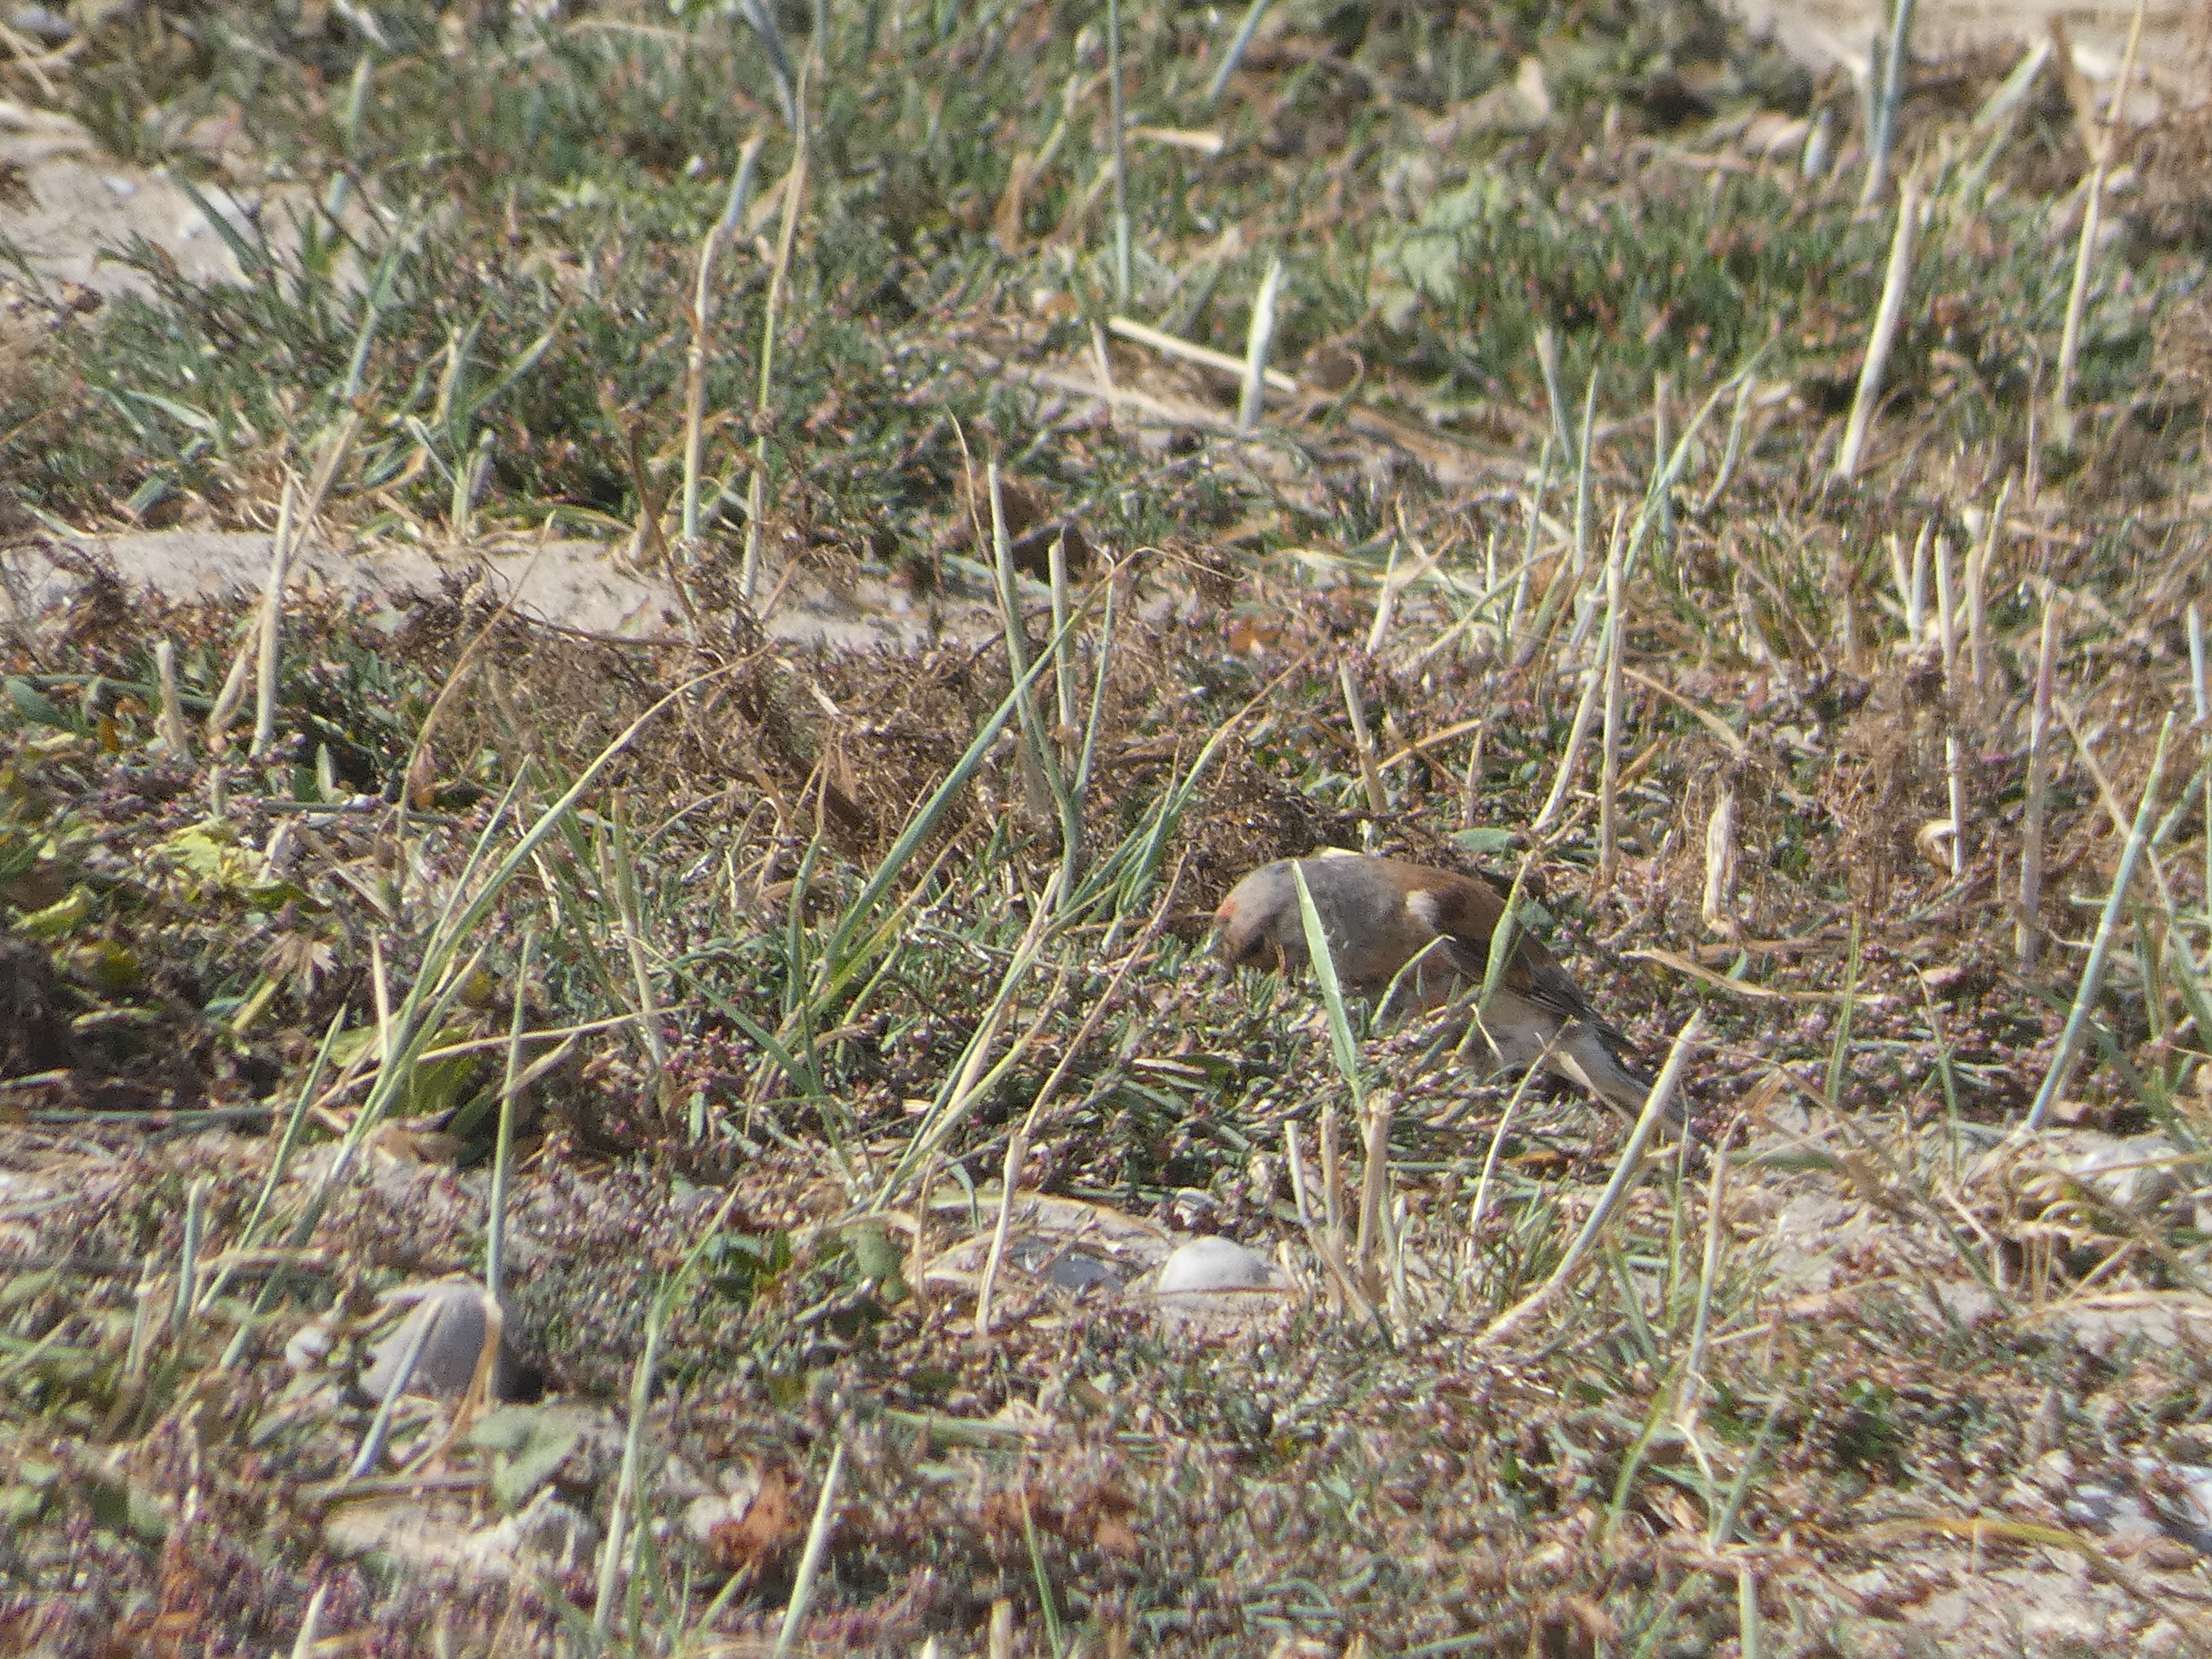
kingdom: Animalia
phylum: Chordata
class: Aves
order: Passeriformes
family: Fringillidae
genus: Linaria
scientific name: Linaria cannabina
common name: Tornirisk
